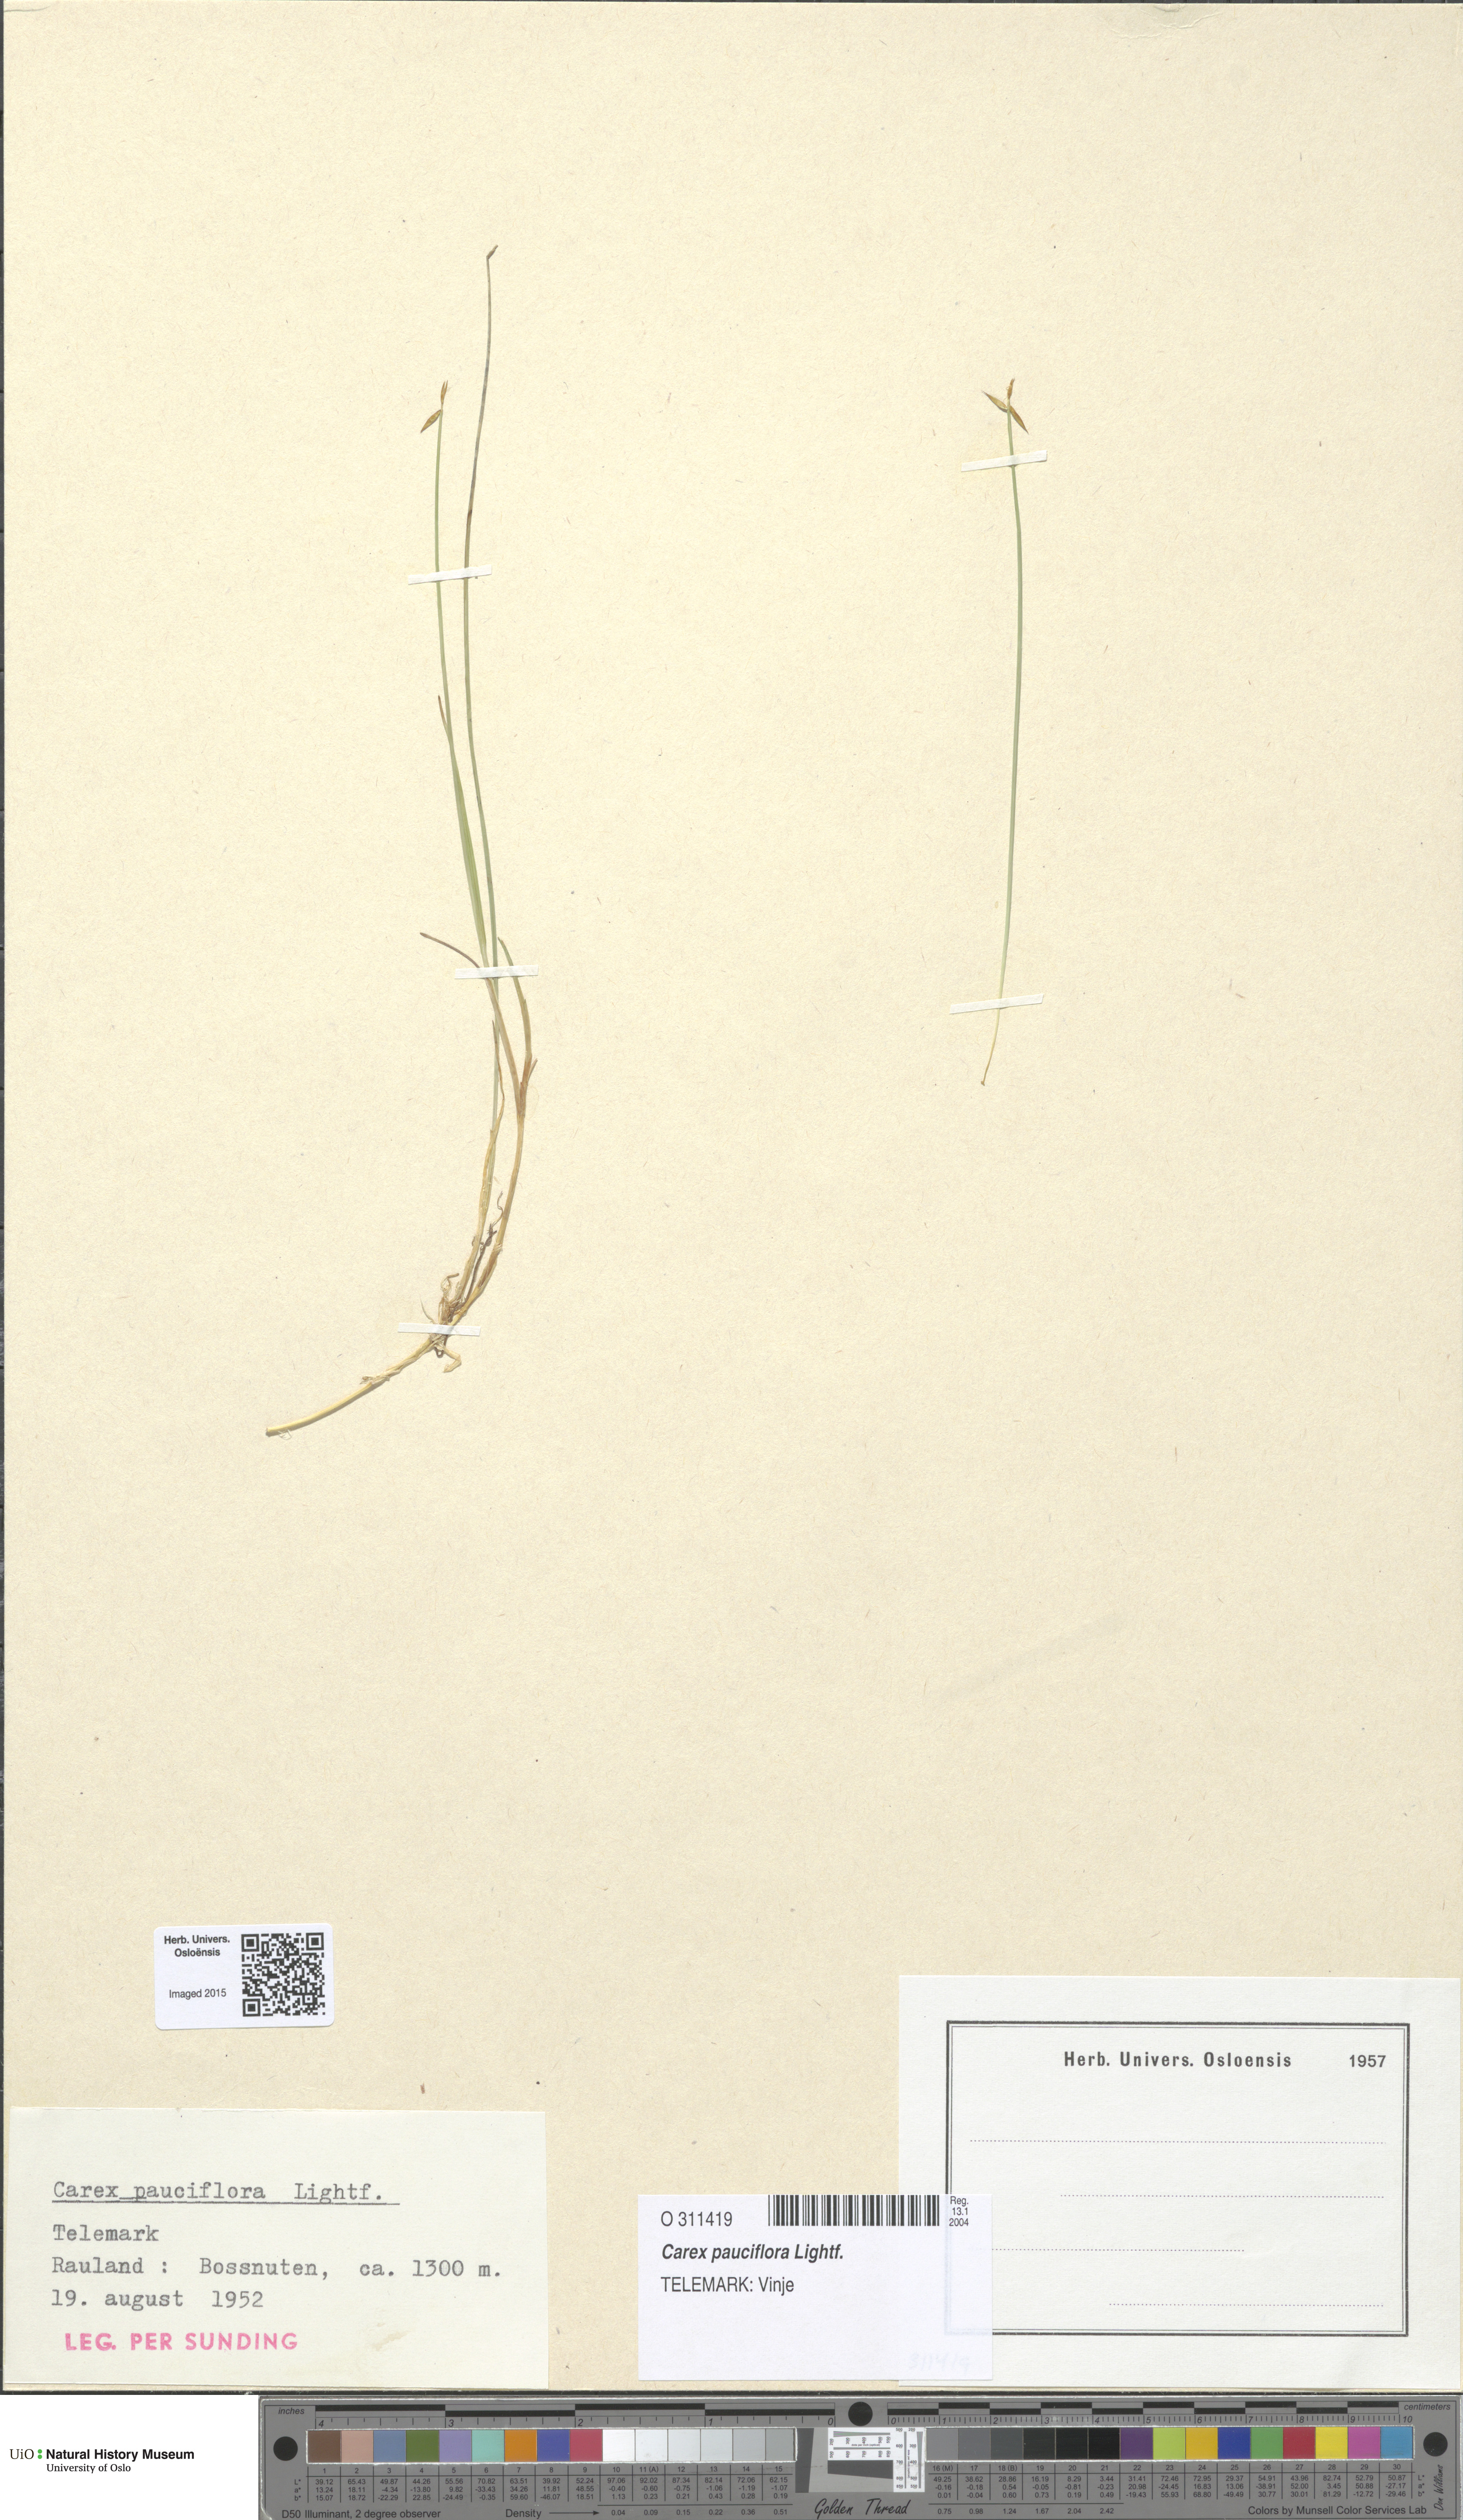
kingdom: Plantae
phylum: Tracheophyta
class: Liliopsida
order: Poales
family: Cyperaceae
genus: Carex
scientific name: Carex pauciflora
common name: Few-flowered sedge
